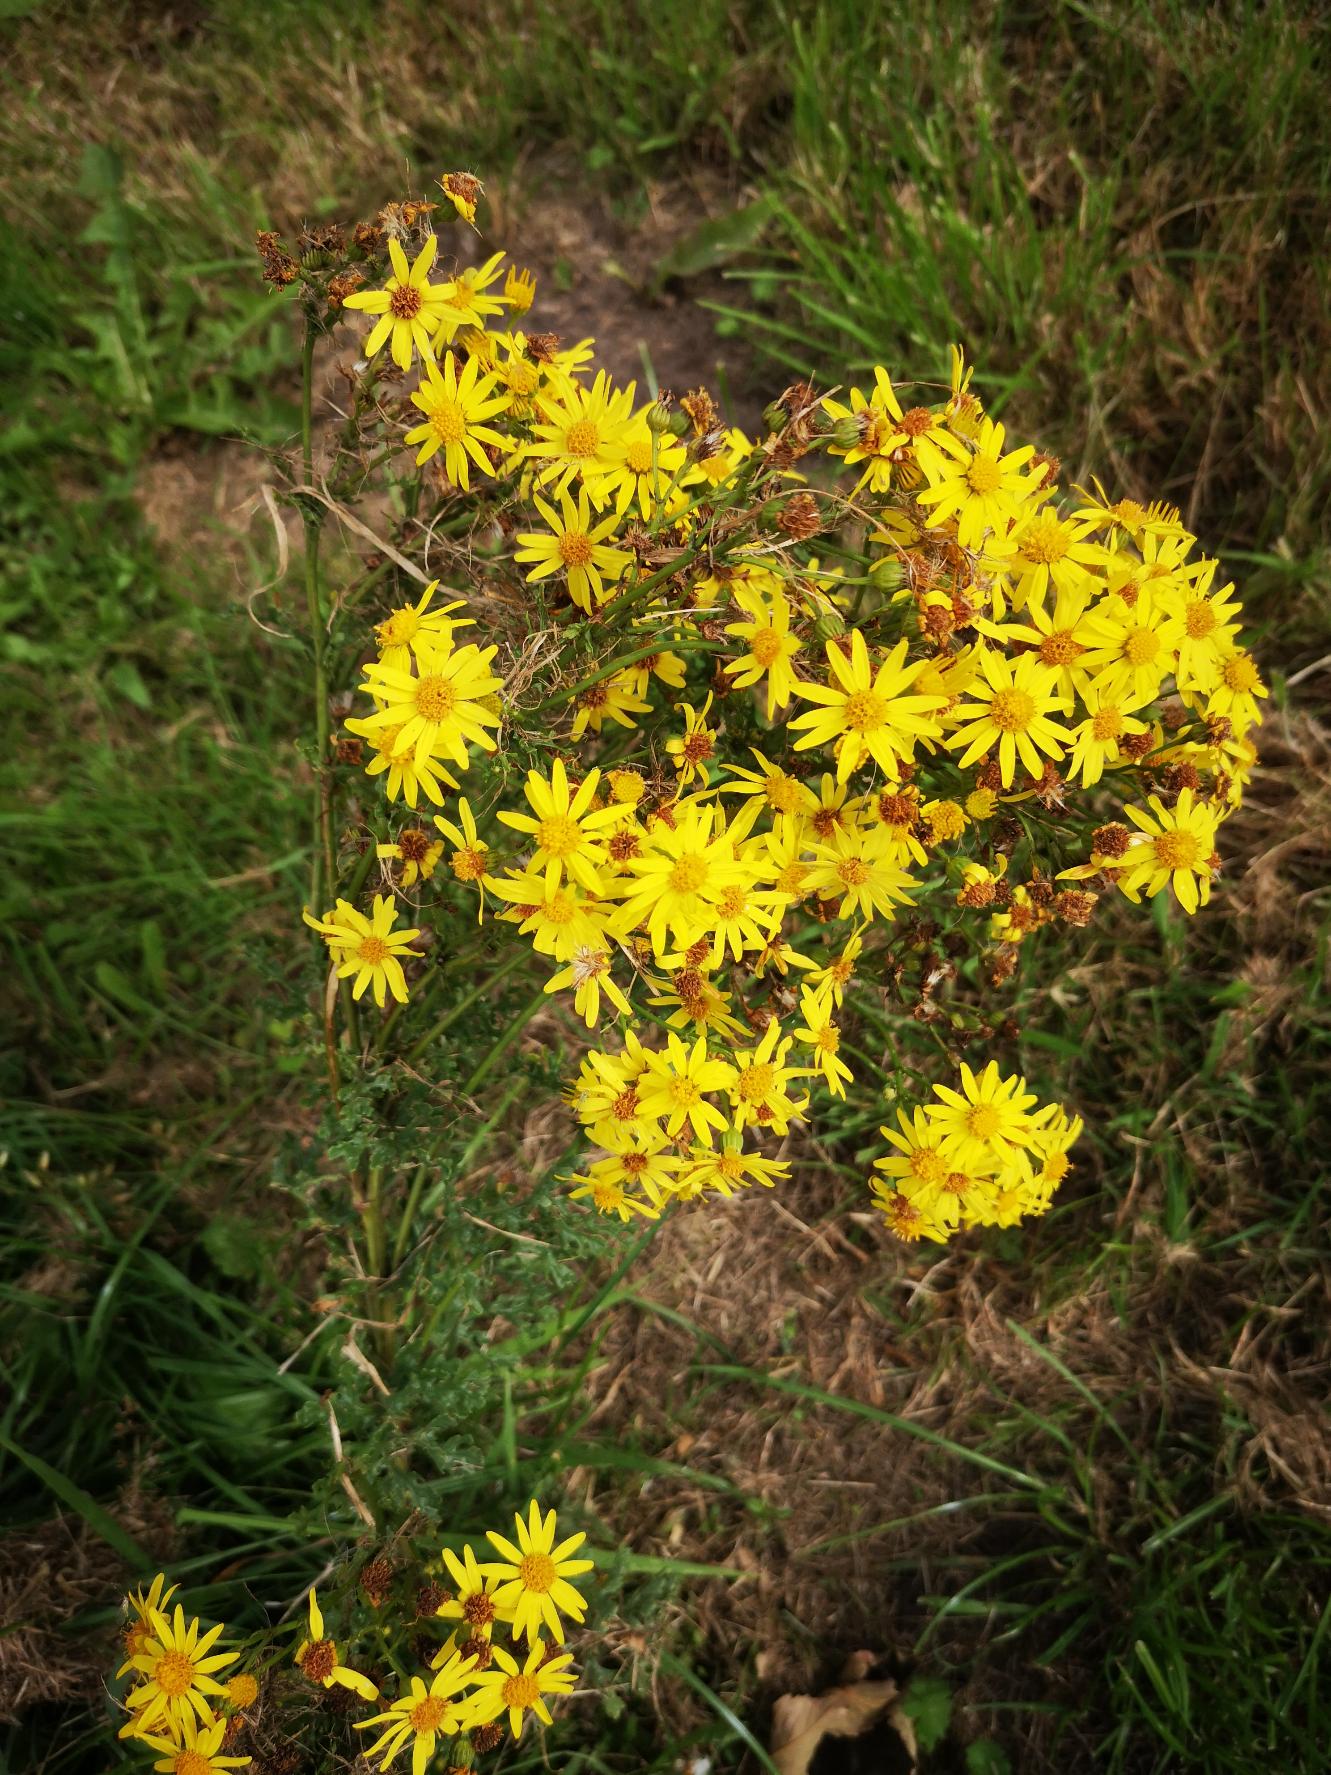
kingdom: Plantae
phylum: Tracheophyta
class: Magnoliopsida
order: Asterales
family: Asteraceae
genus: Jacobaea
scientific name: Jacobaea vulgaris
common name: Eng-brandbæger
